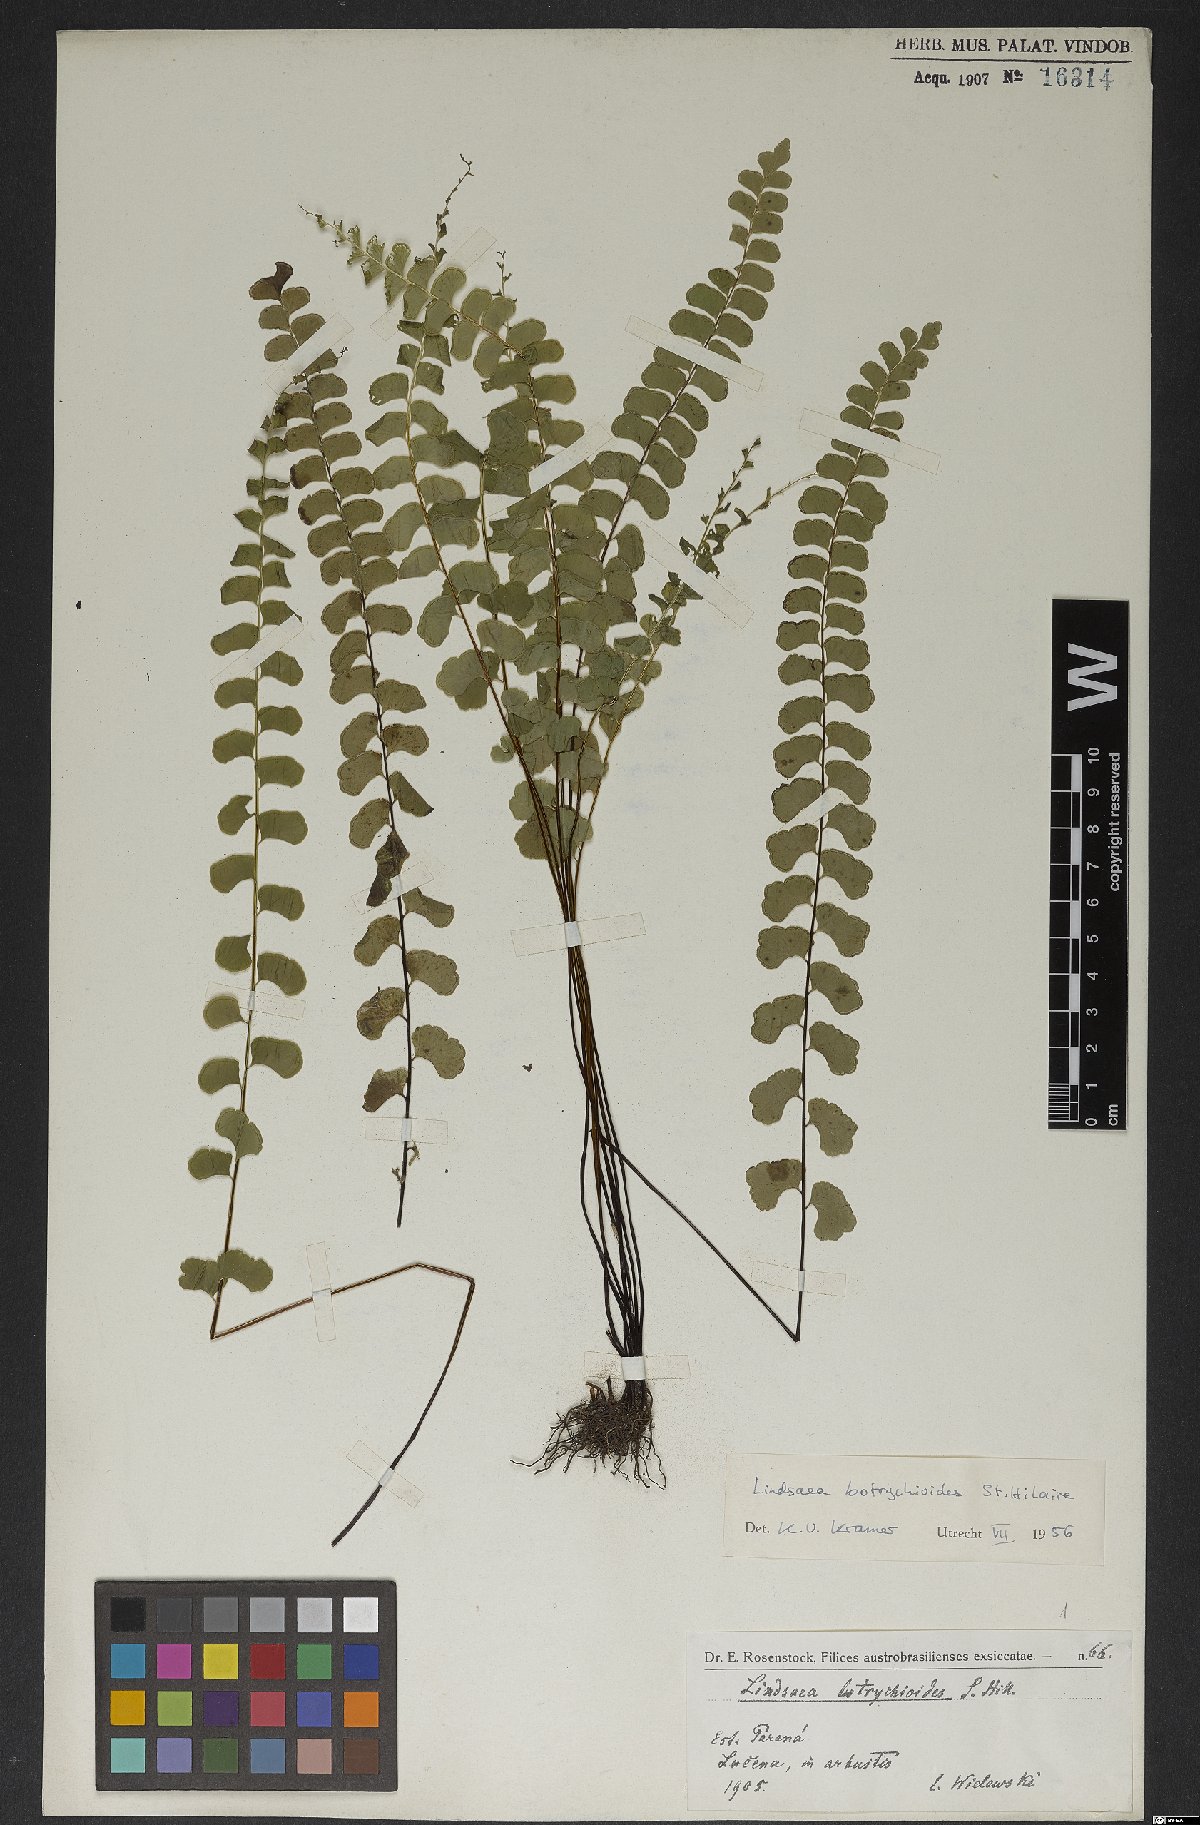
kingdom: Plantae
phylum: Tracheophyta
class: Polypodiopsida
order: Polypodiales
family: Lindsaeaceae
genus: Lindsaea
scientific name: Lindsaea botrychioides
